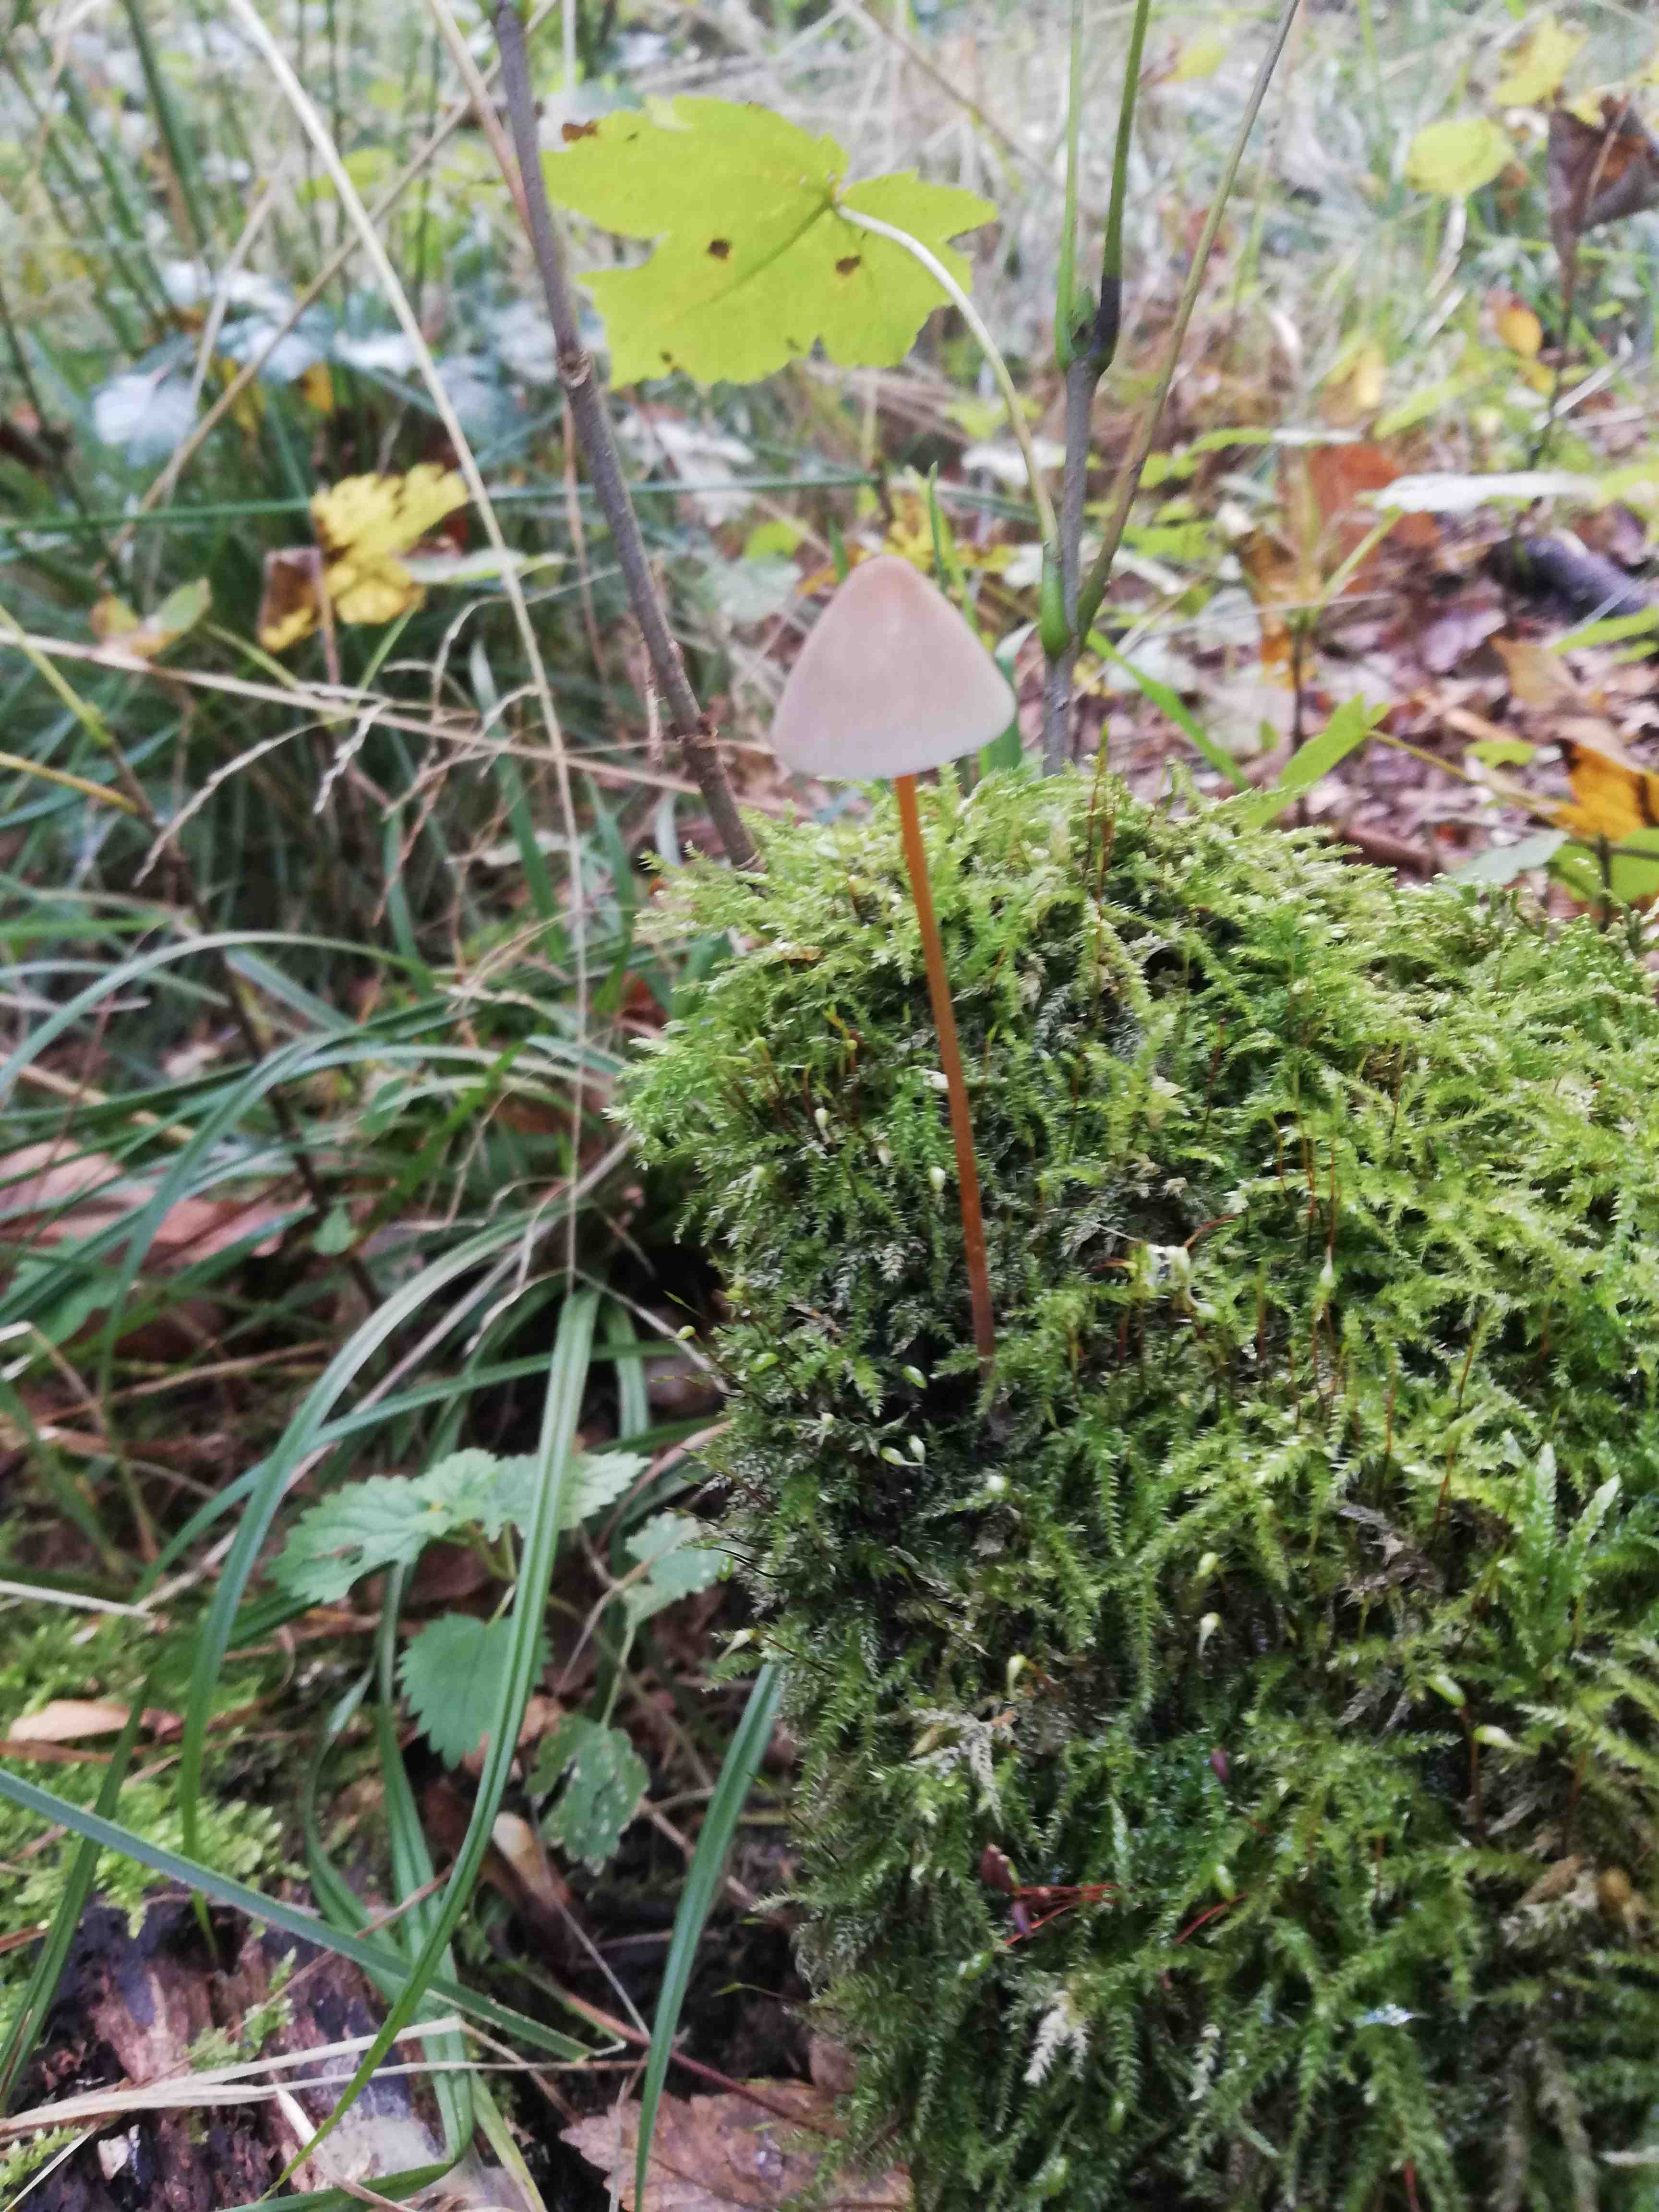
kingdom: Fungi
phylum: Basidiomycota
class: Agaricomycetes
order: Agaricales
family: Mycenaceae
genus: Mycena
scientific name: Mycena crocata
